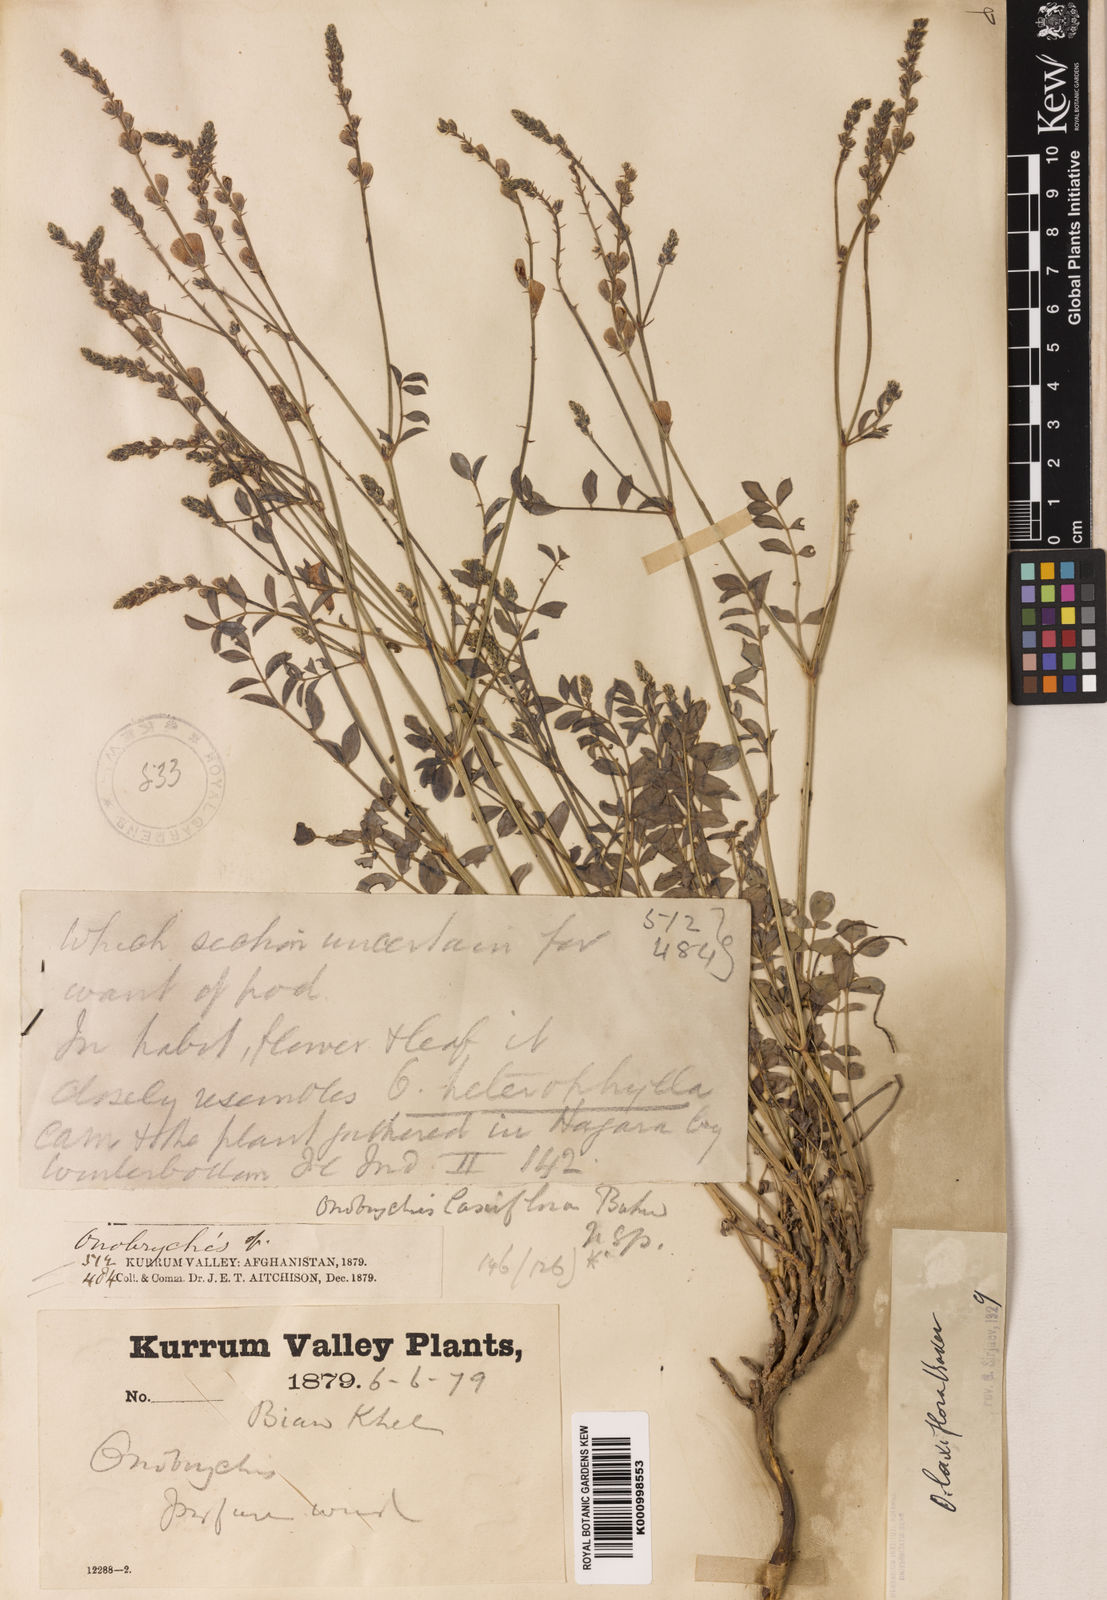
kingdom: Plantae
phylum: Tracheophyta
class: Magnoliopsida
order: Fabales
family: Fabaceae
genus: Onobrychis
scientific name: Onobrychis laxiflora
